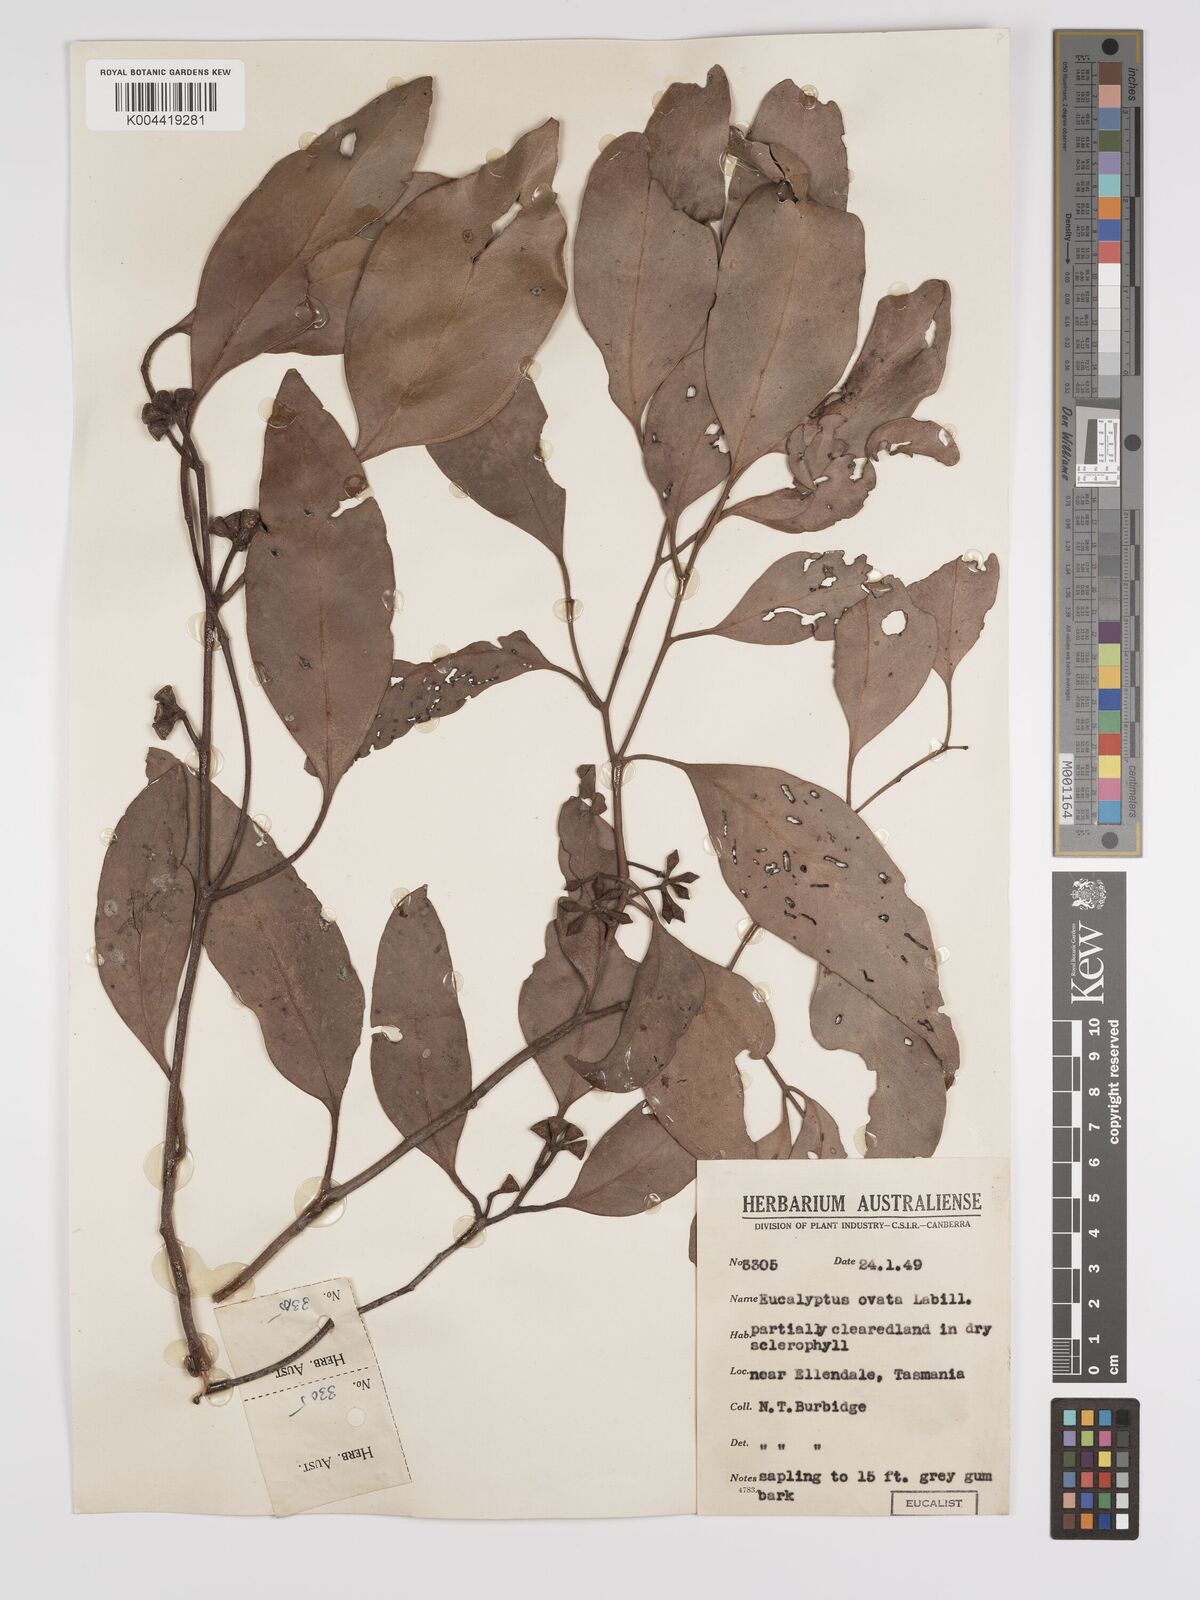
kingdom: Plantae
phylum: Tracheophyta
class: Magnoliopsida
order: Myrtales
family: Myrtaceae
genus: Eucalyptus
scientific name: Eucalyptus ovata
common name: Black-gum
